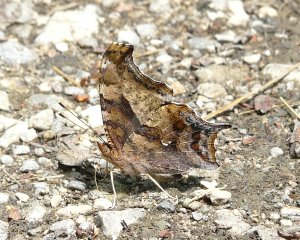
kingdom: Animalia
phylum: Arthropoda
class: Insecta
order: Lepidoptera
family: Nymphalidae
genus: Polygonia
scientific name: Polygonia interrogationis
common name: Question Mark
